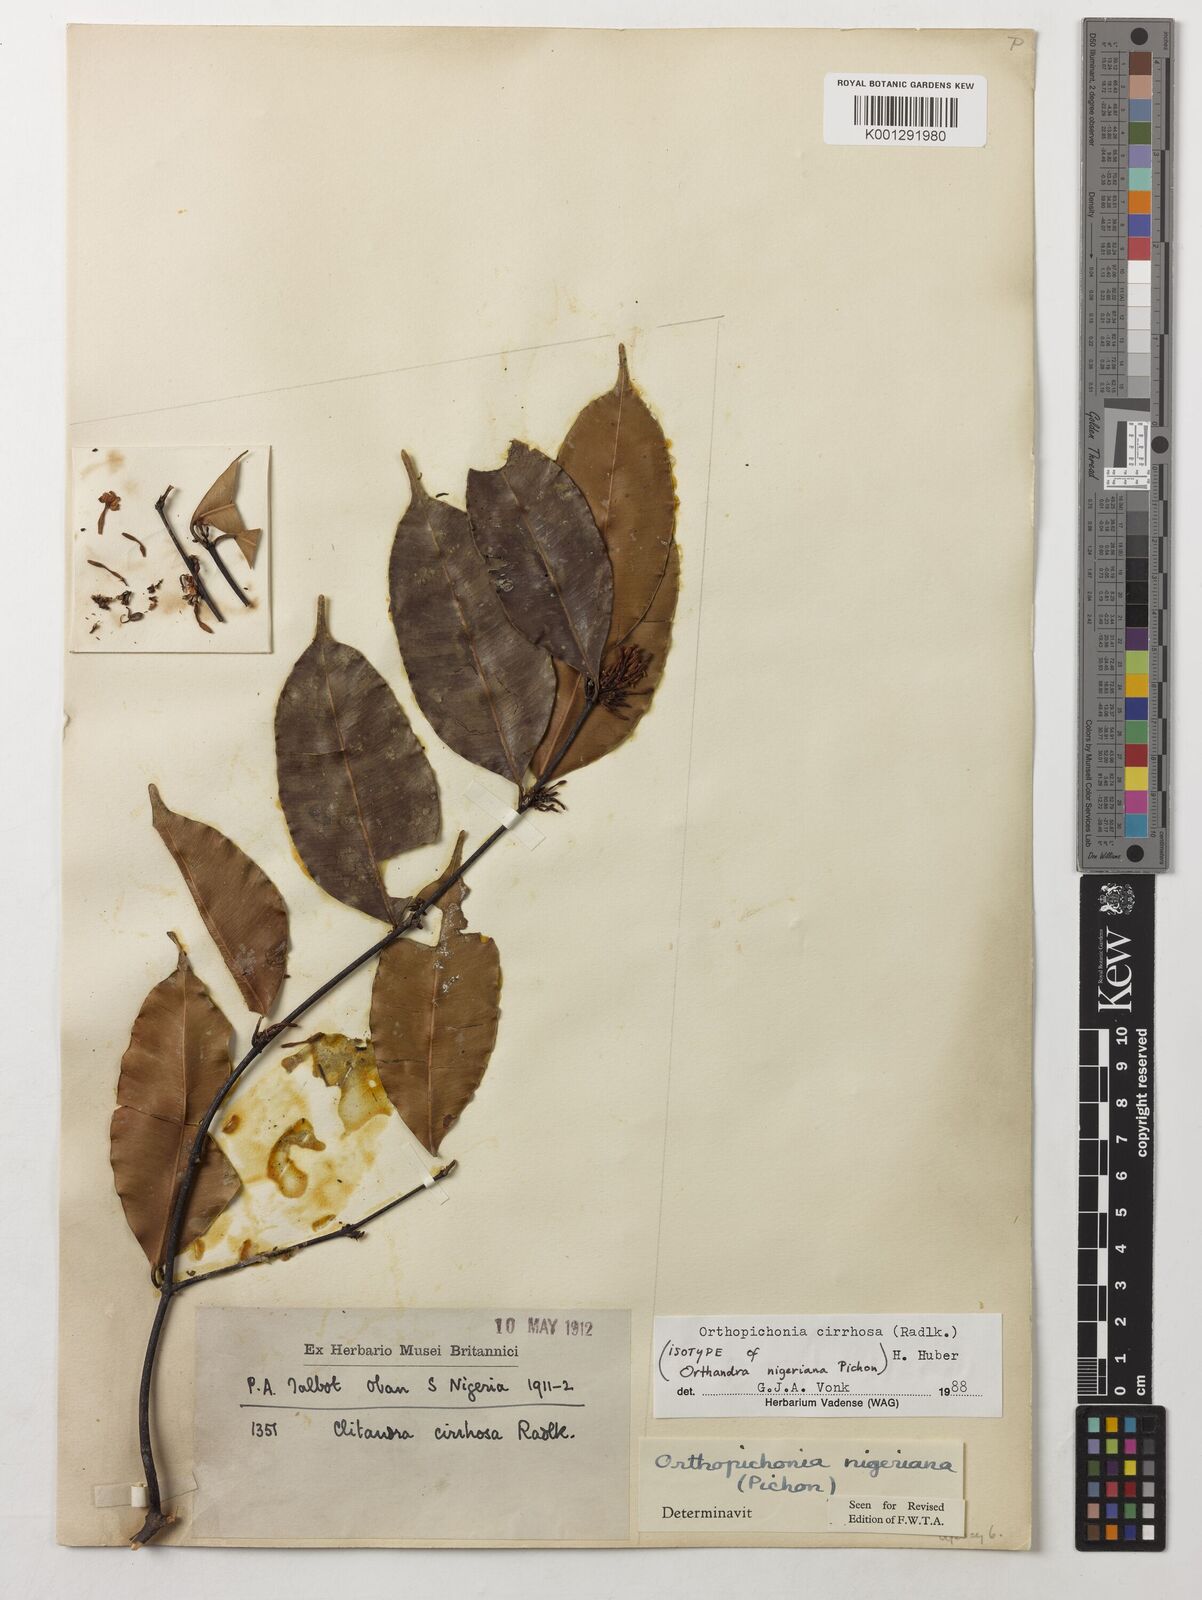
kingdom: Plantae
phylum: Tracheophyta
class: Magnoliopsida
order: Gentianales
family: Apocynaceae
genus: Orthopichonia
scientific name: Orthopichonia cirrhosa
